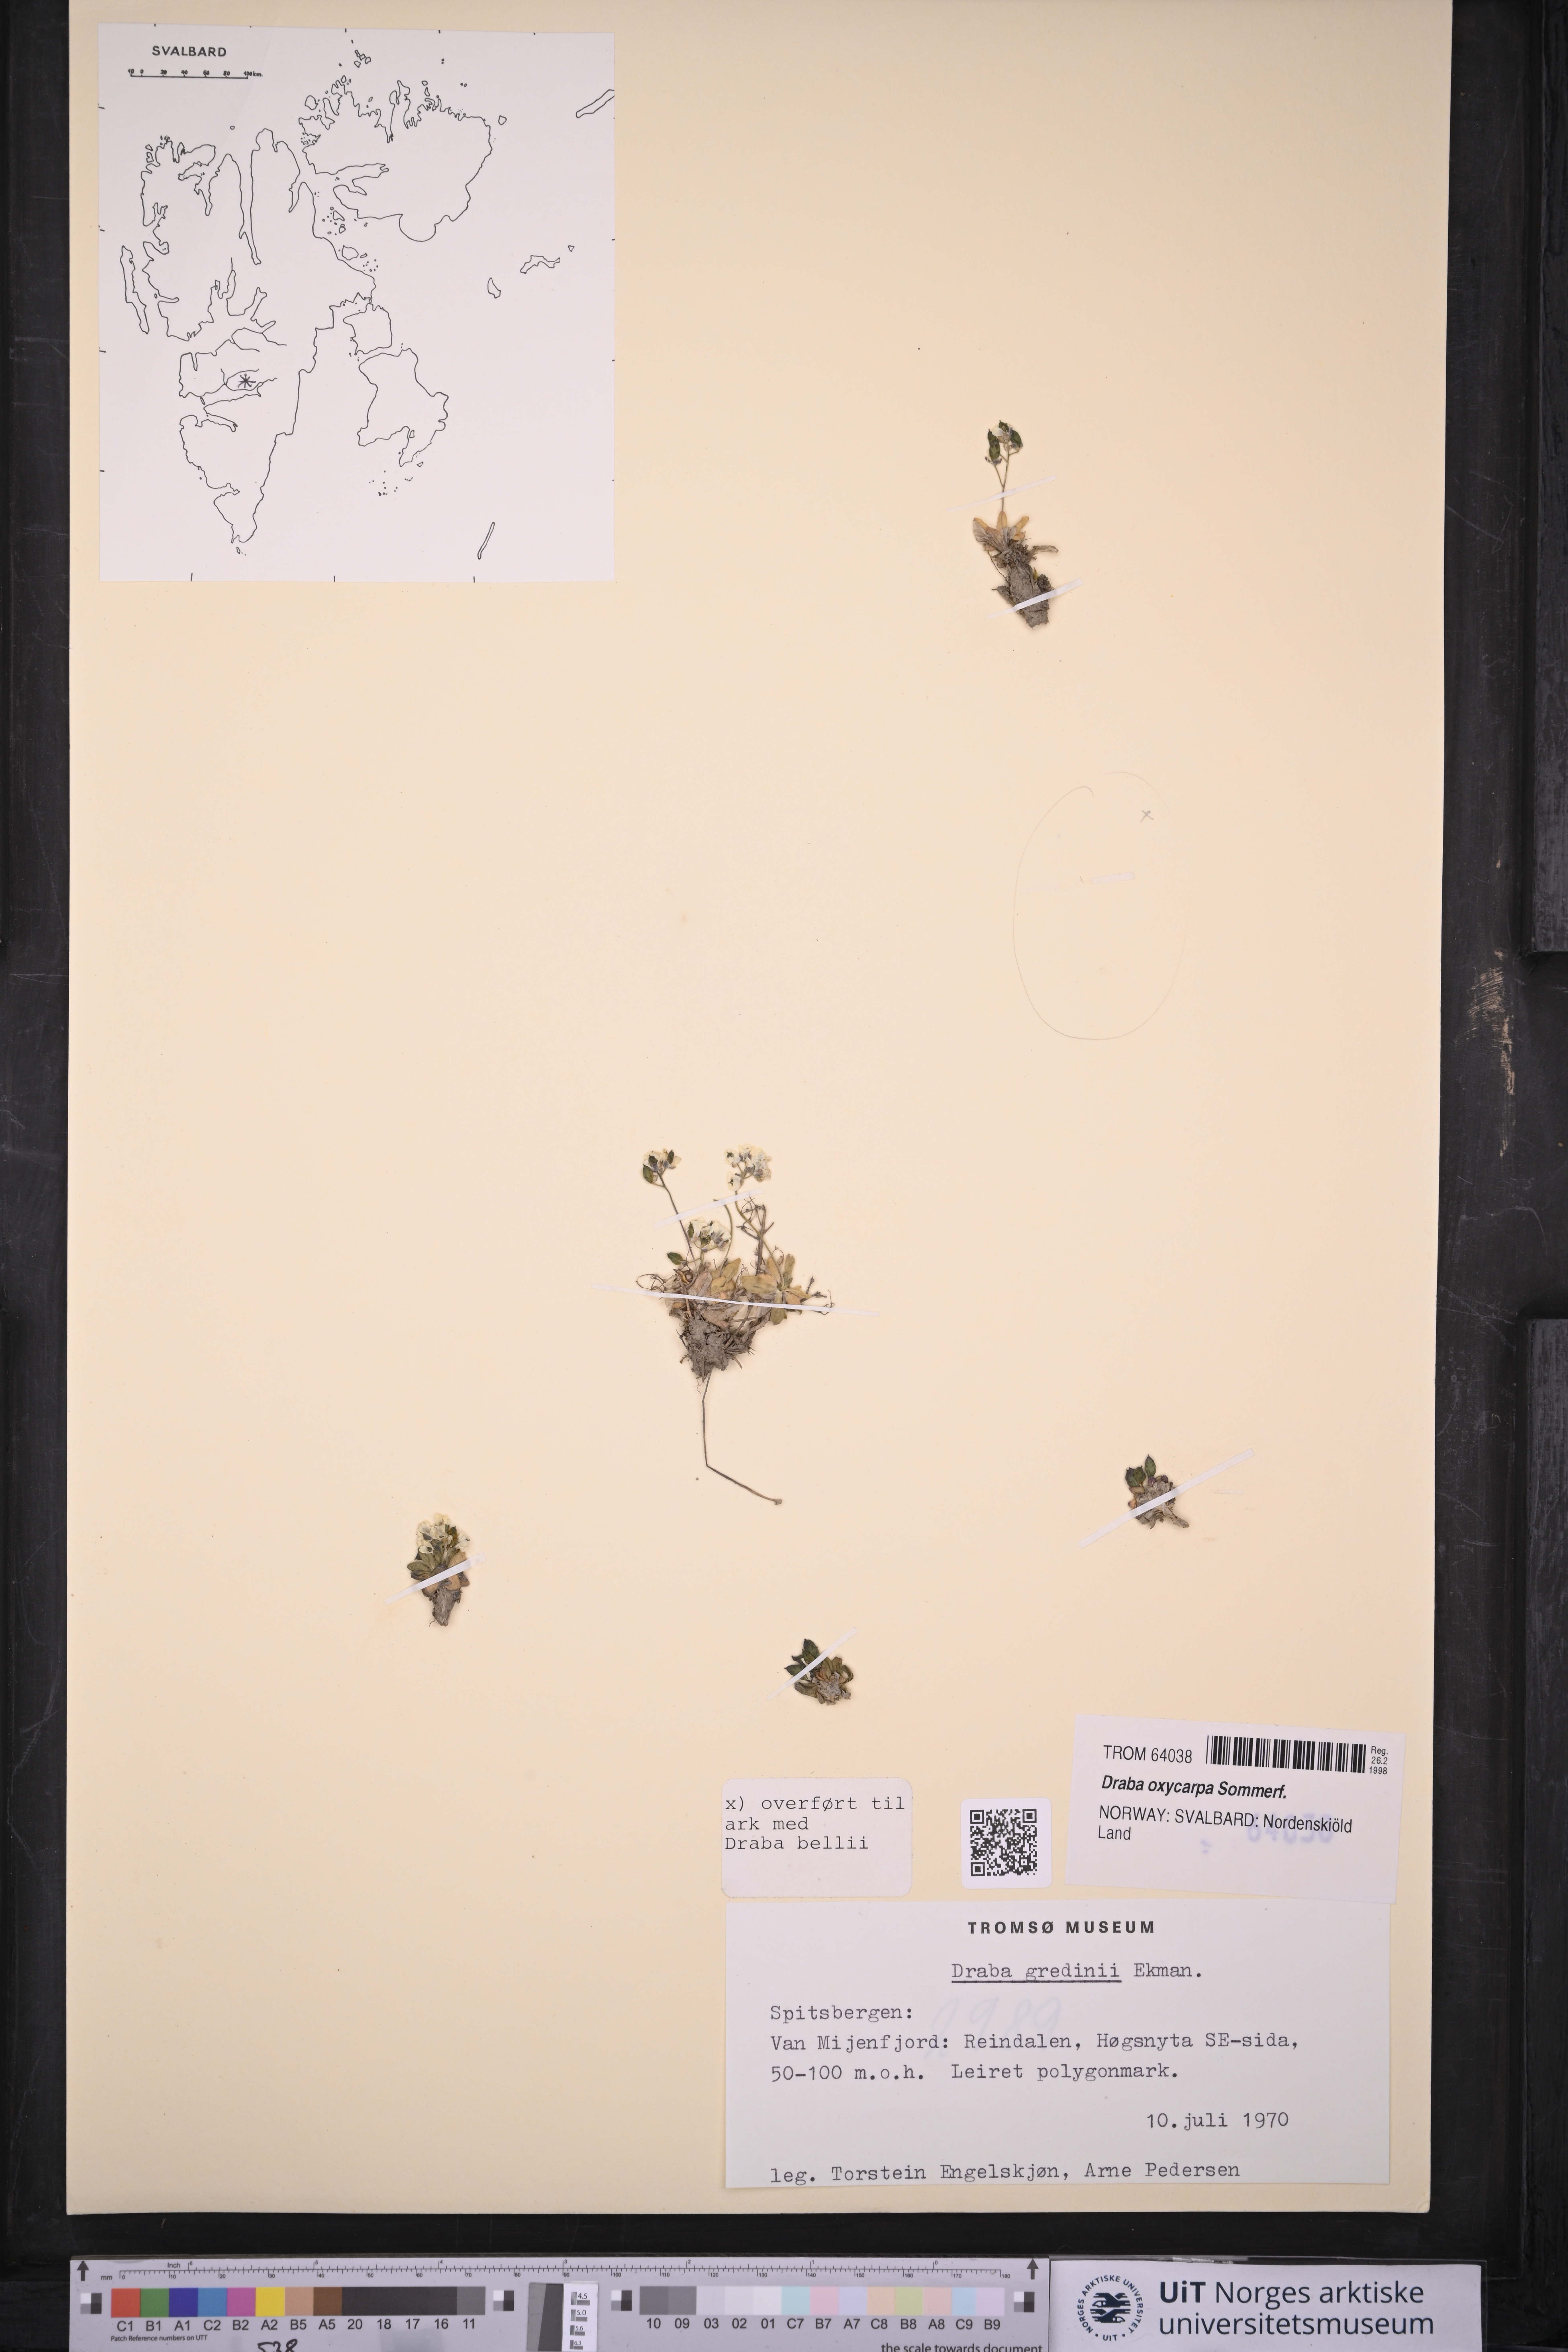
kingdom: Plantae
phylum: Tracheophyta
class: Magnoliopsida
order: Brassicales
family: Brassicaceae
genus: Draba
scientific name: Draba oxycarpa
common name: Sharp-fruited whitlow-grass
